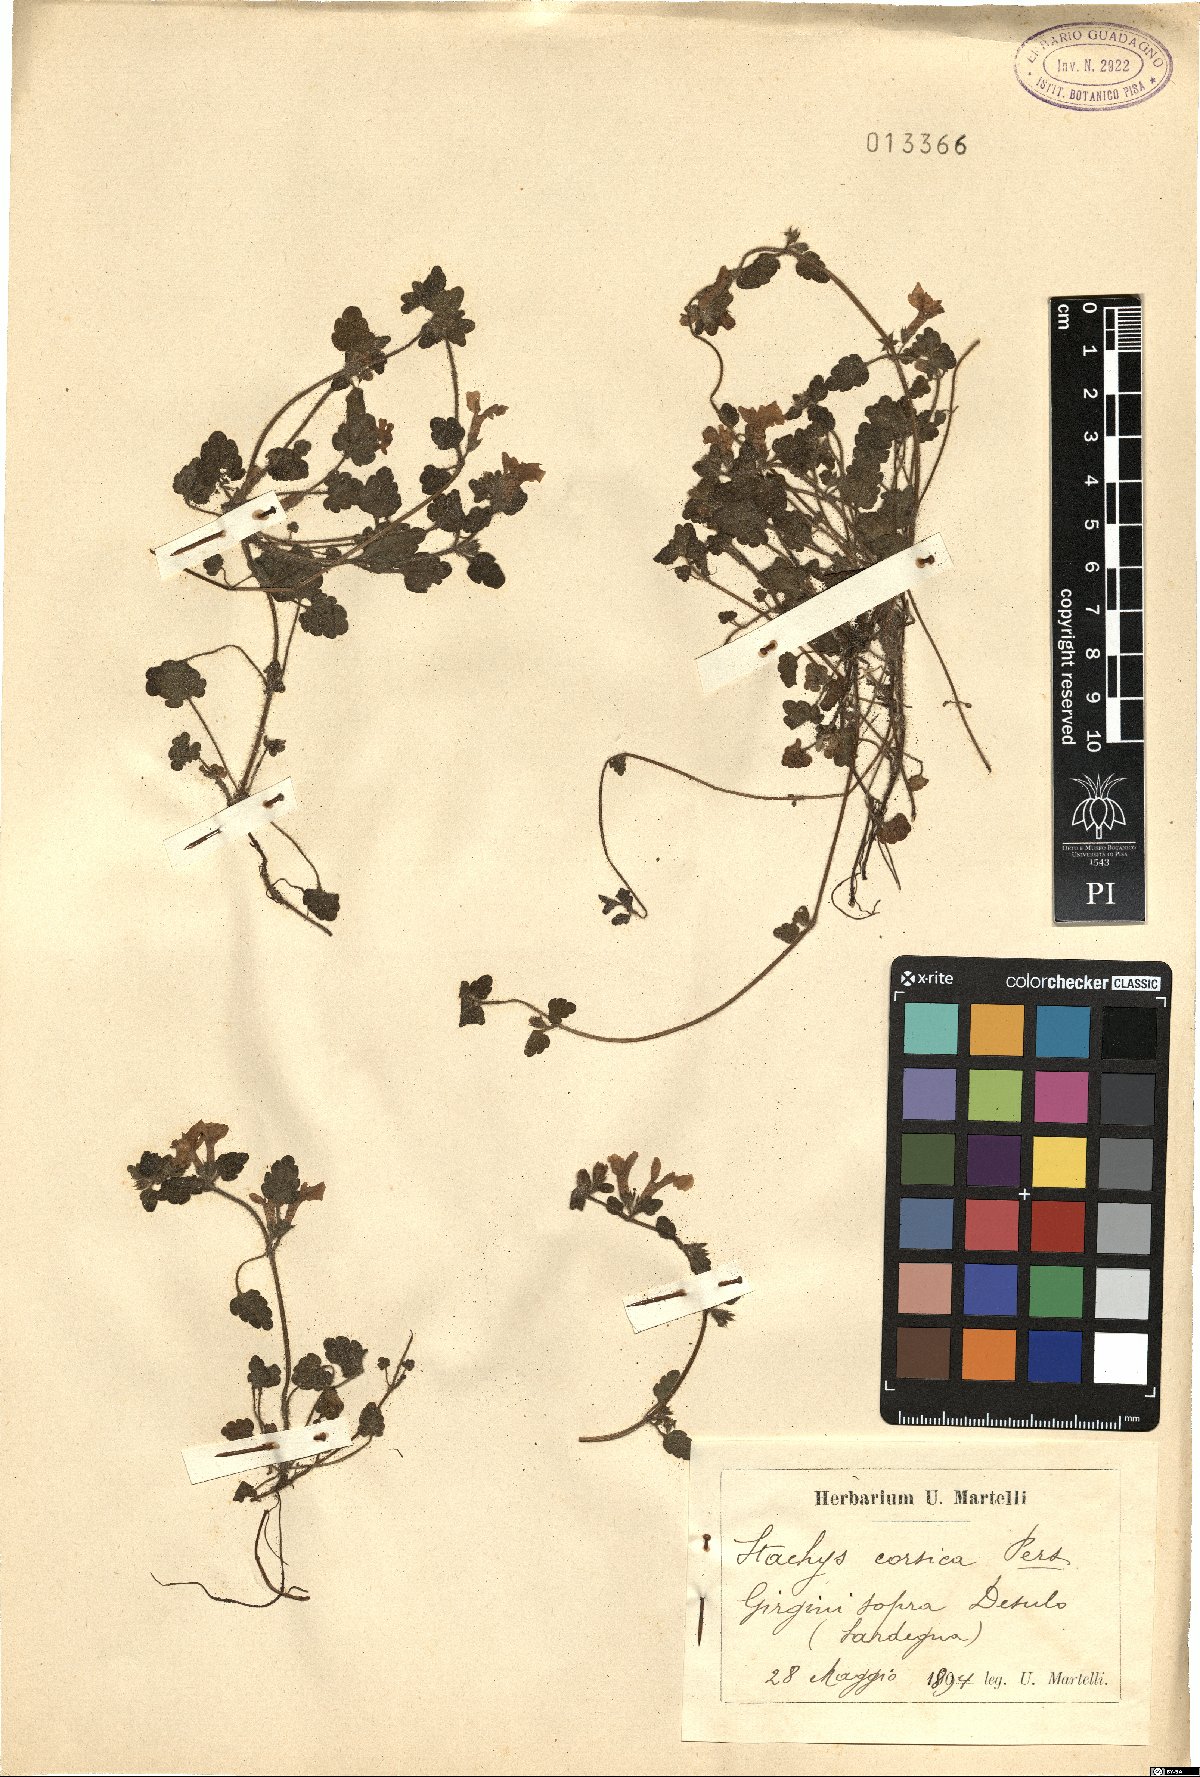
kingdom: Plantae
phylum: Tracheophyta
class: Magnoliopsida
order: Lamiales
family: Lamiaceae
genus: Stachys
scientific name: Stachys corsica
